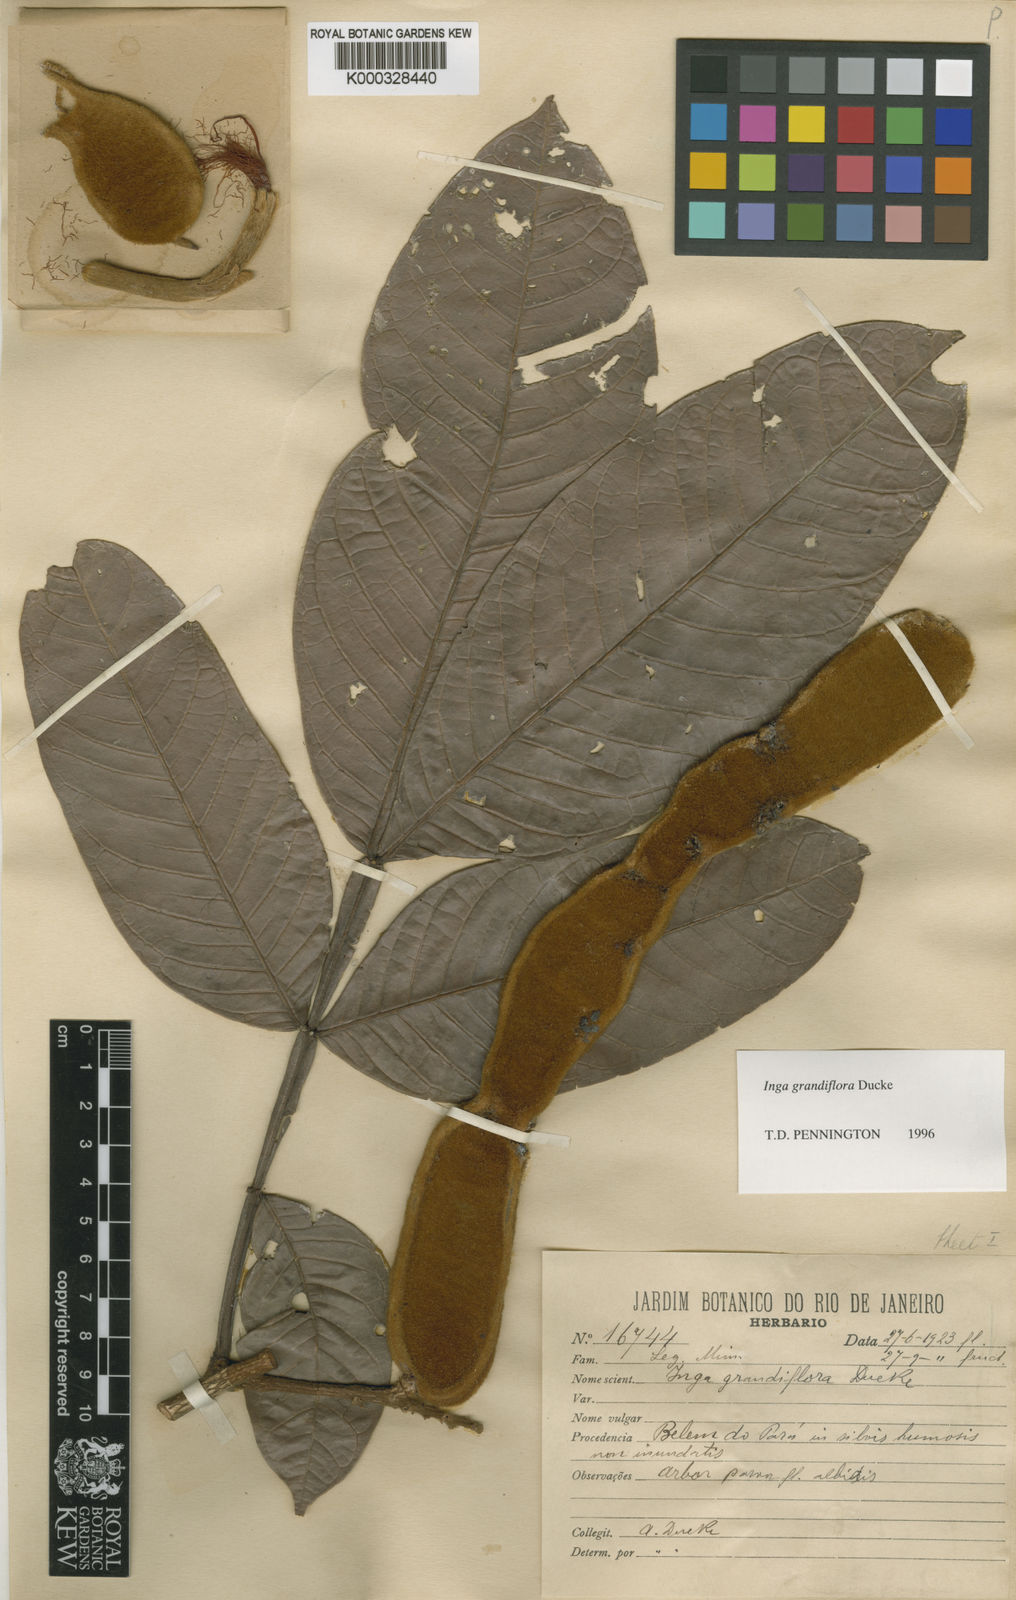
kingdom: Plantae
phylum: Tracheophyta
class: Magnoliopsida
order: Fabales
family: Fabaceae
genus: Inga
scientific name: Inga crassiflora
